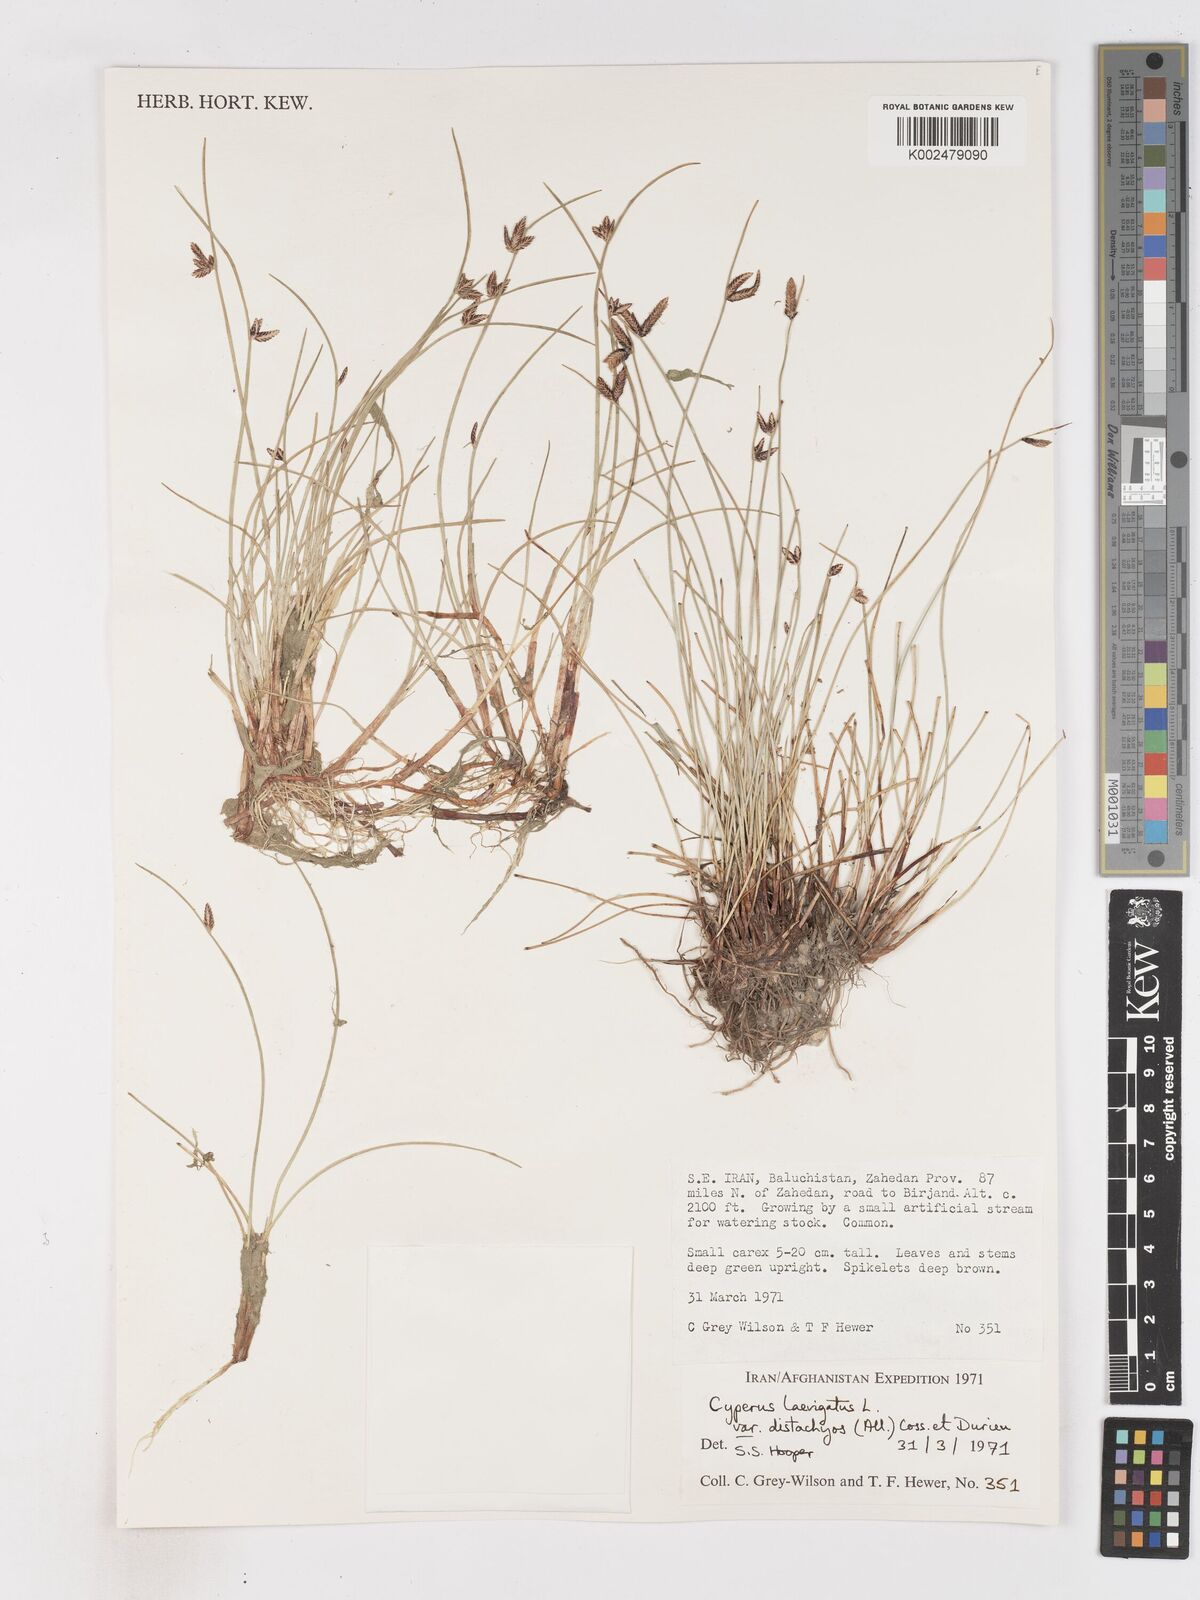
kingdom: Plantae
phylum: Tracheophyta
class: Liliopsida
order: Poales
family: Cyperaceae
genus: Cyperus
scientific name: Cyperus laevigatus
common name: Smooth flat sedge
